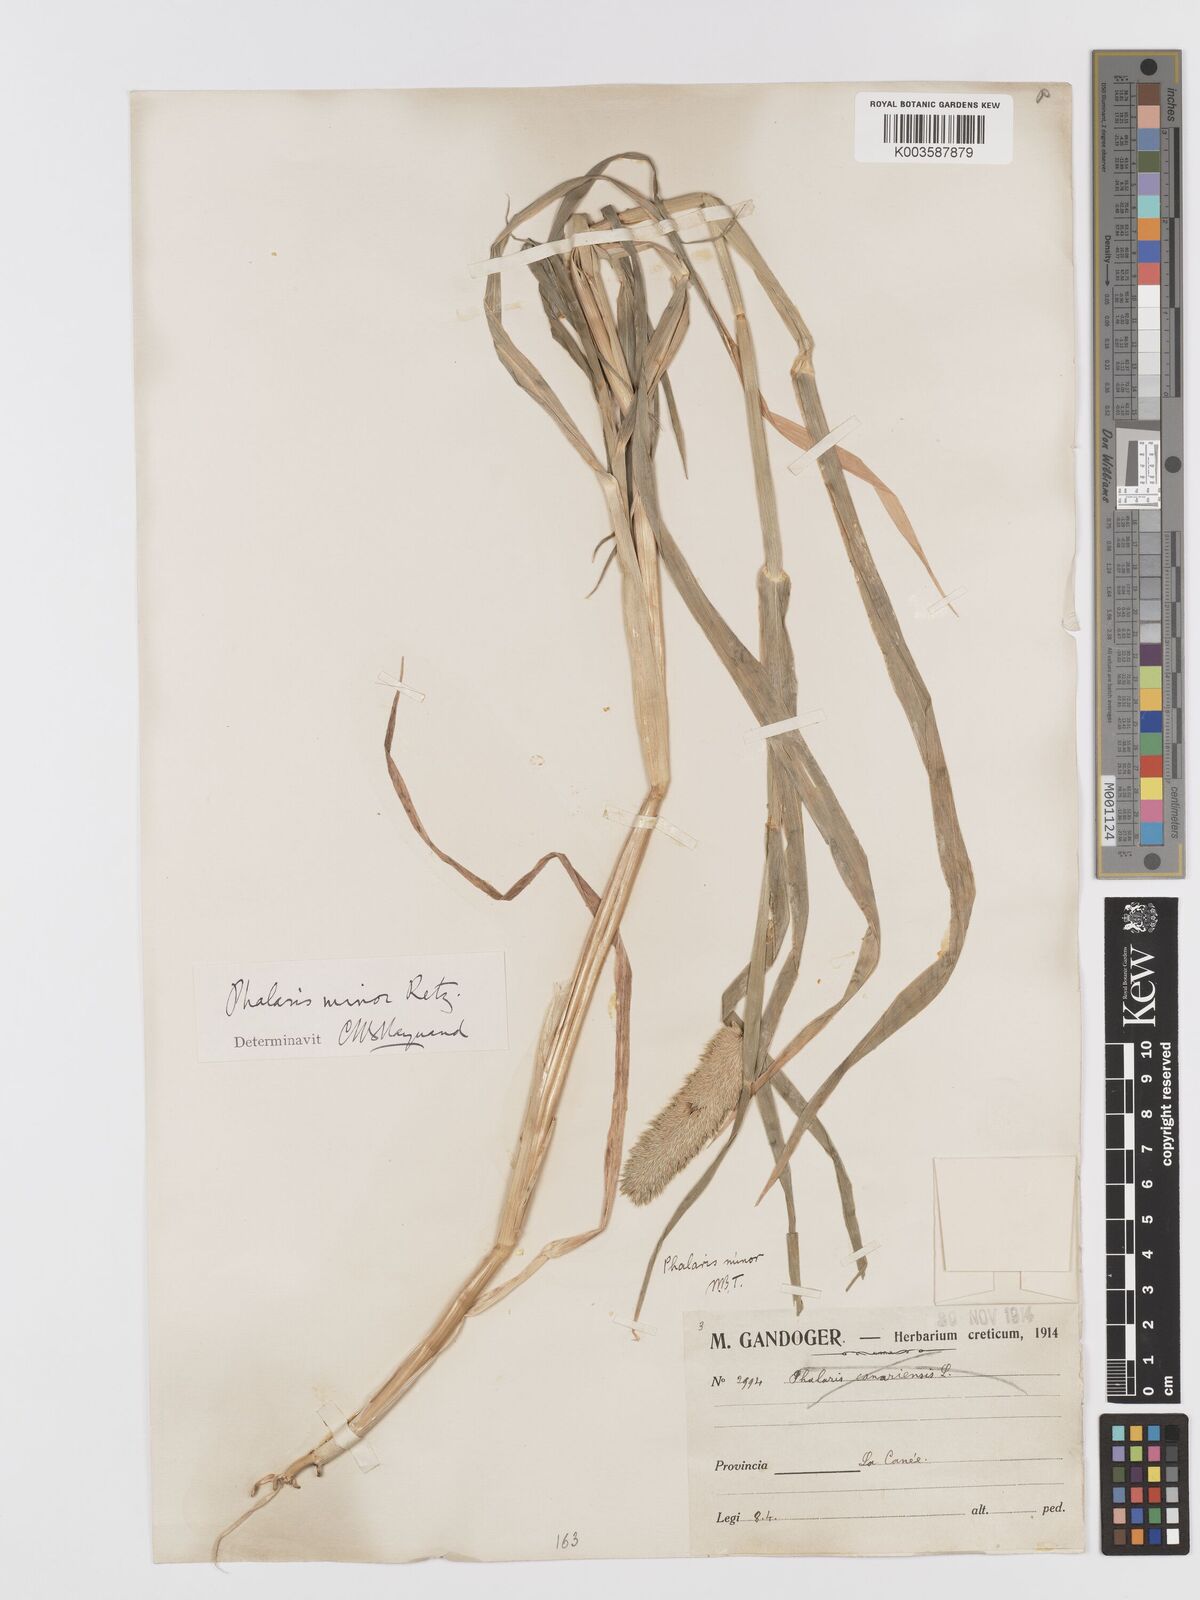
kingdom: Plantae
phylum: Tracheophyta
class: Liliopsida
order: Poales
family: Poaceae
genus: Phalaris
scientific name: Phalaris minor
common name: Littleseed canarygrass
